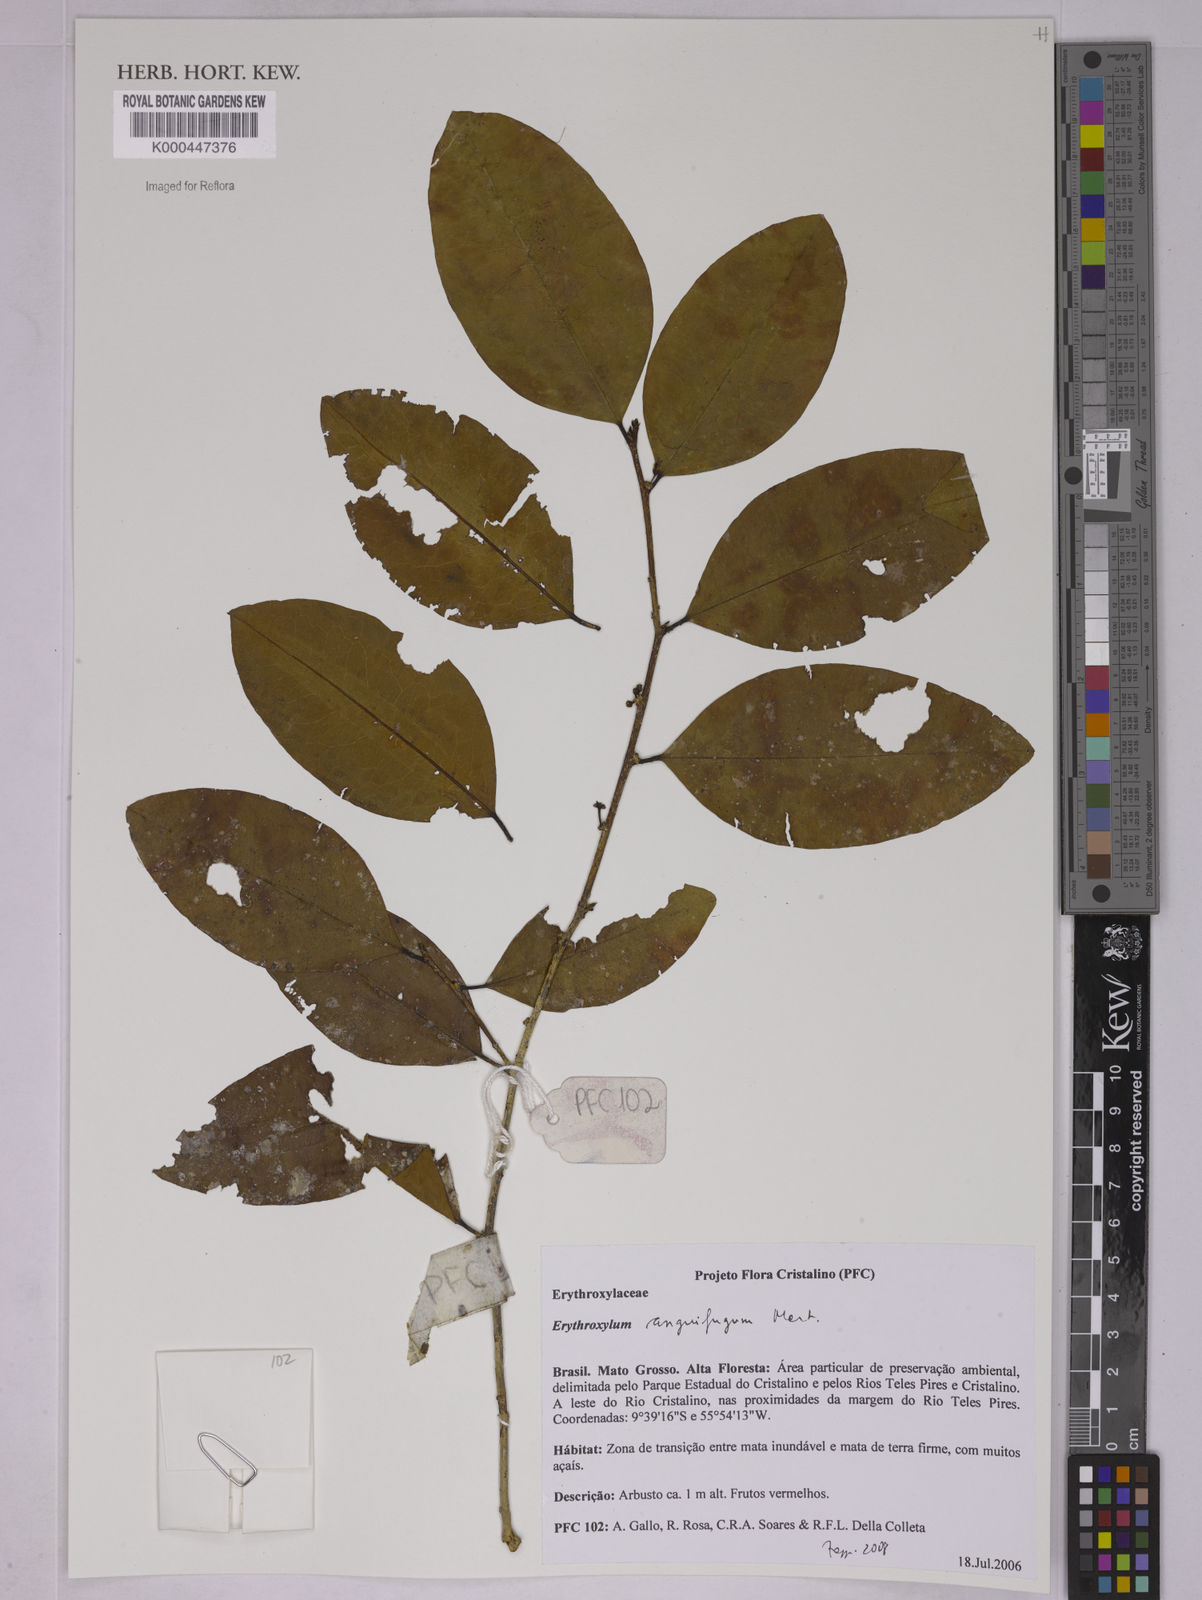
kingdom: Plantae
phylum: Tracheophyta
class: Magnoliopsida
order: Malpighiales
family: Erythroxylaceae
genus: Erythroxylum
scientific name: Erythroxylum anguifugum
